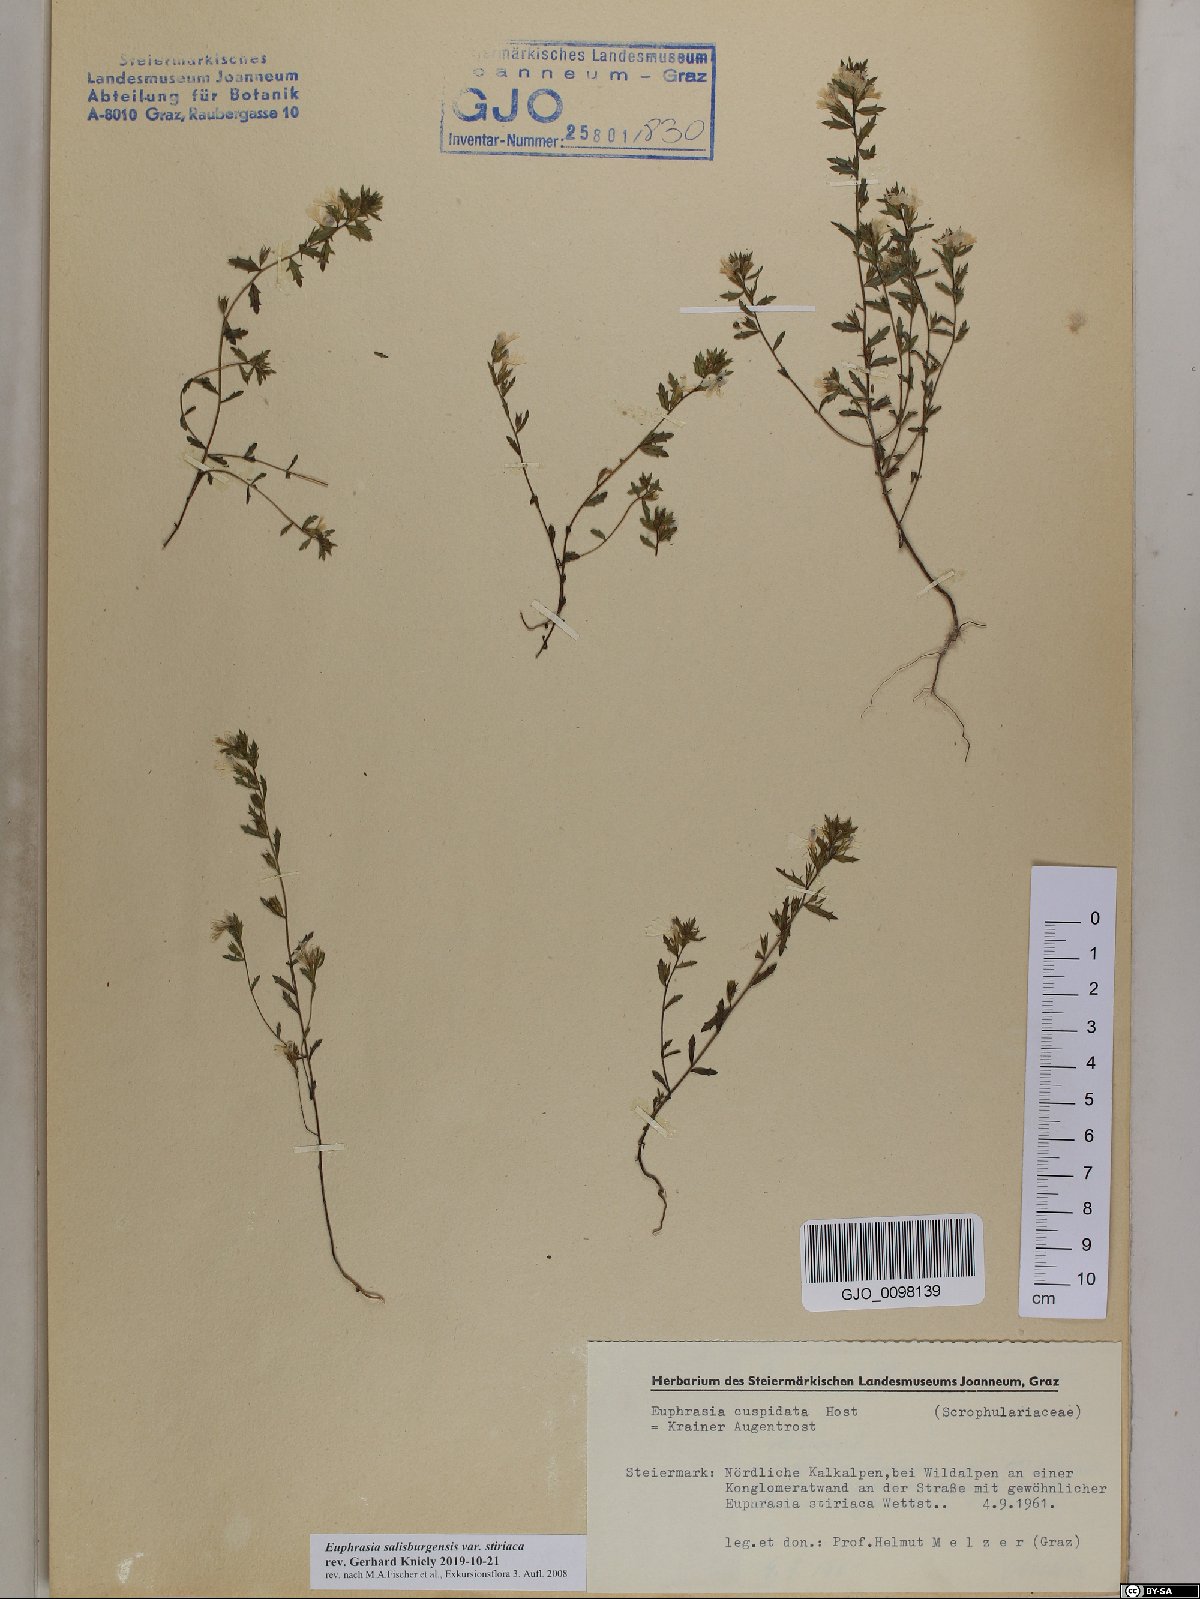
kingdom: Plantae
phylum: Tracheophyta
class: Magnoliopsida
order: Lamiales
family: Orobanchaceae
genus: Euphrasia
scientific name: Euphrasia salisburgensis
